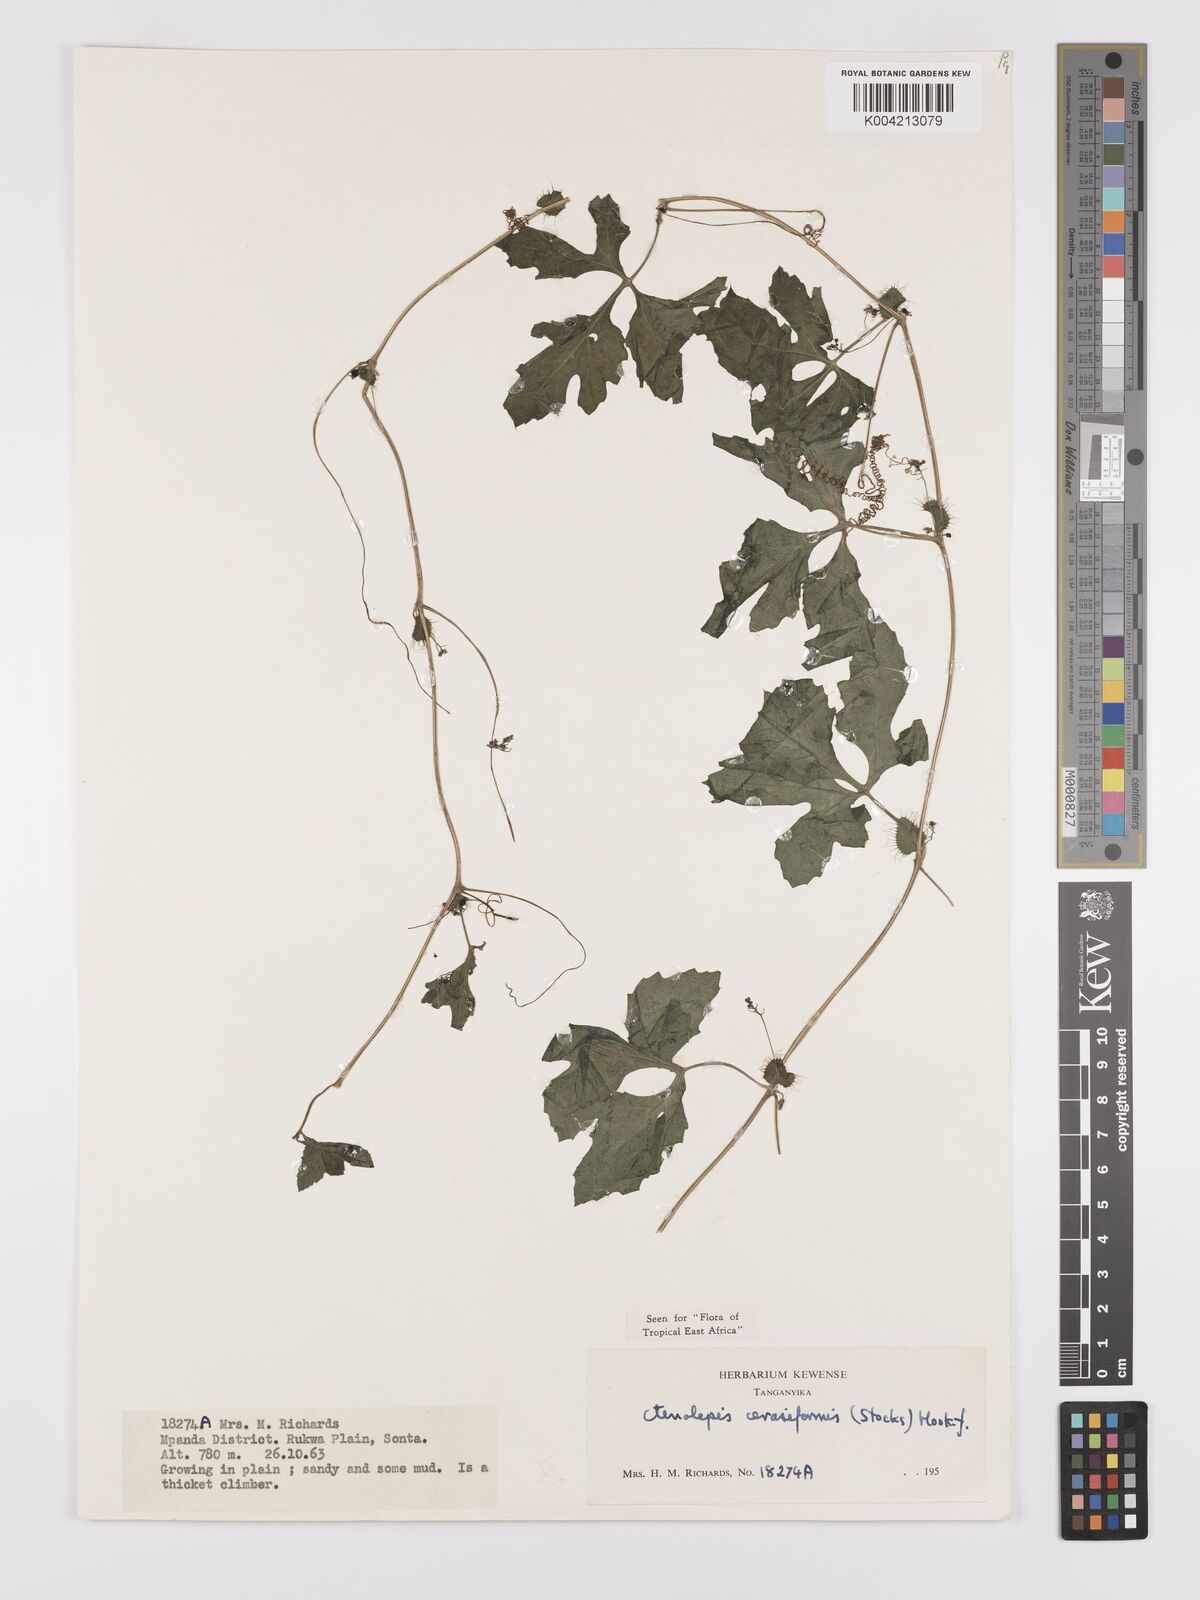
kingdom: Plantae
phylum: Tracheophyta
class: Magnoliopsida
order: Cucurbitales
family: Cucurbitaceae
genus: Blastania
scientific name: Blastania cerasiformis
